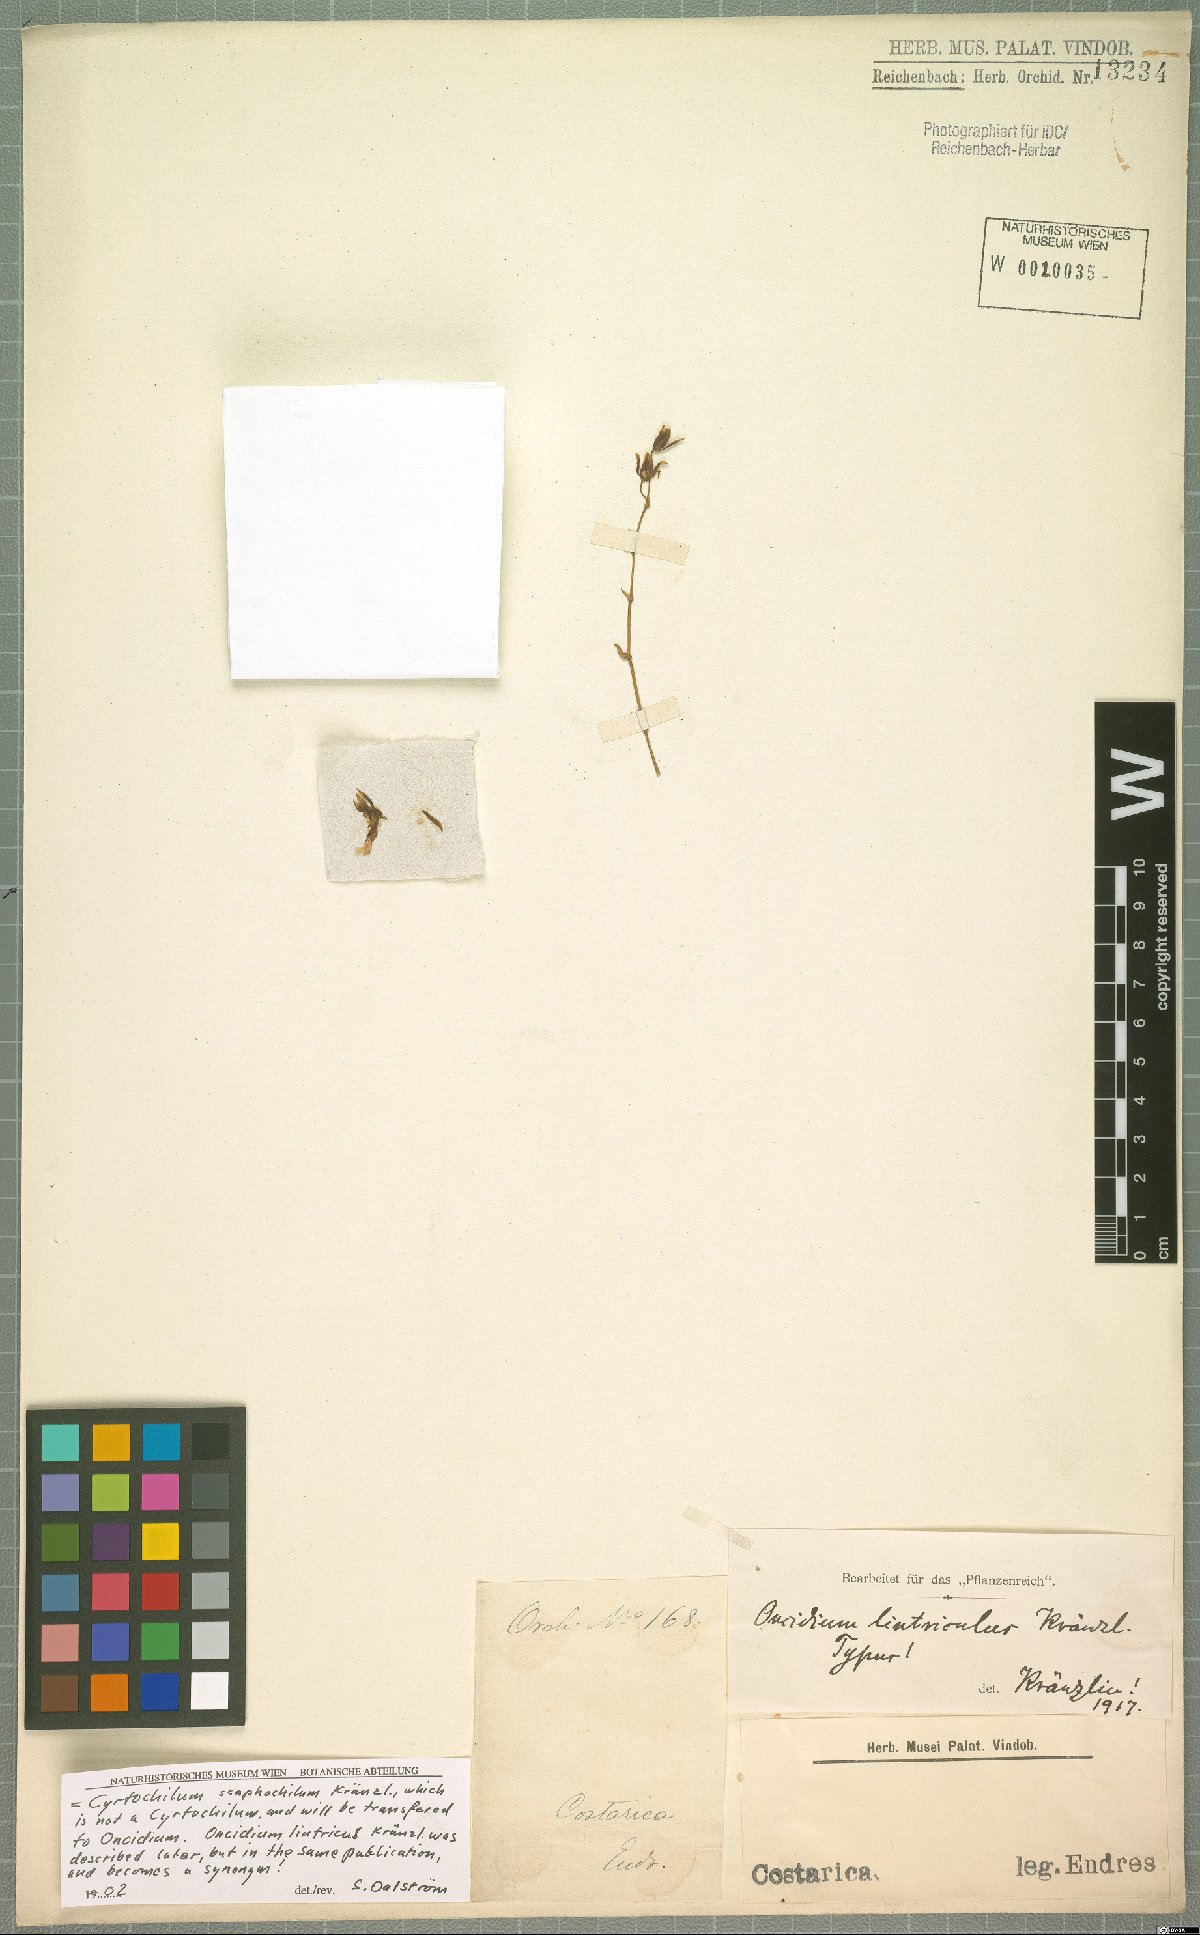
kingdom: Plantae
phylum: Tracheophyta
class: Liliopsida
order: Asparagales
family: Orchidaceae
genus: Oncidium
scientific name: Oncidium maculatum
